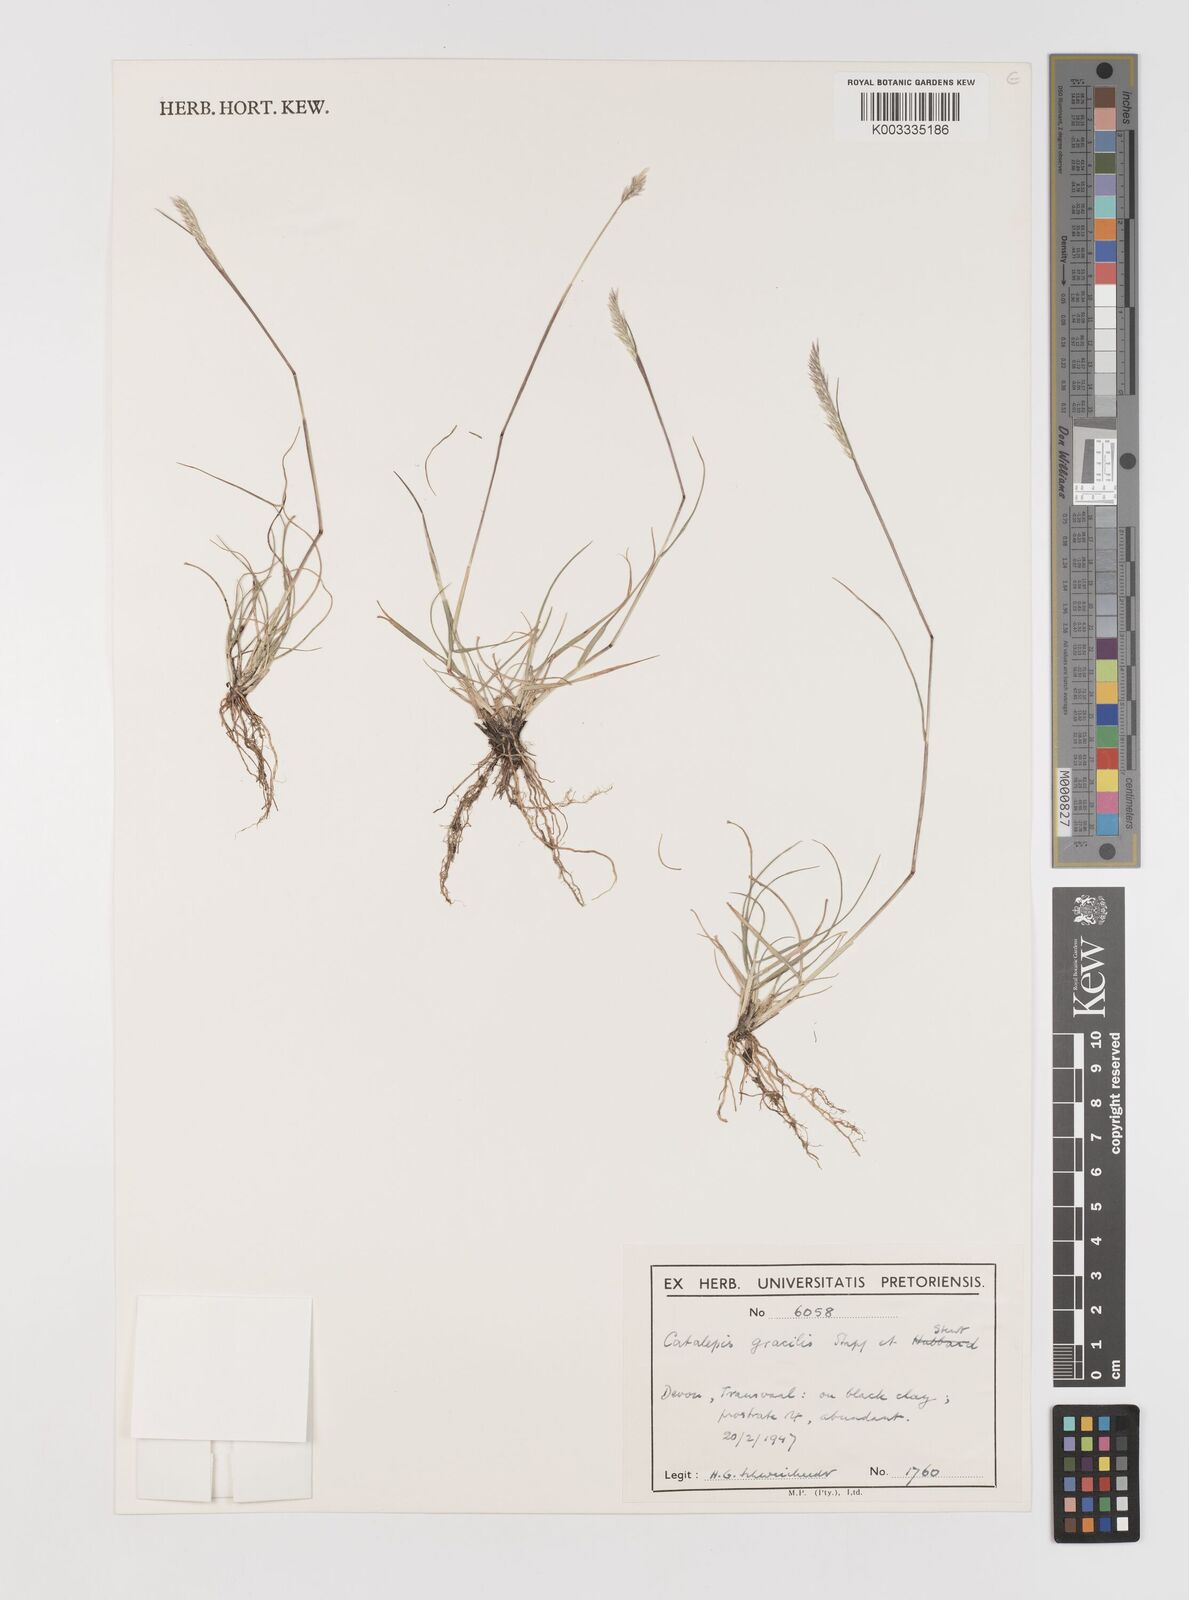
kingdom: Plantae
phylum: Tracheophyta
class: Liliopsida
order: Poales
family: Poaceae
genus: Catalepis
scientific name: Catalepis gracilis
